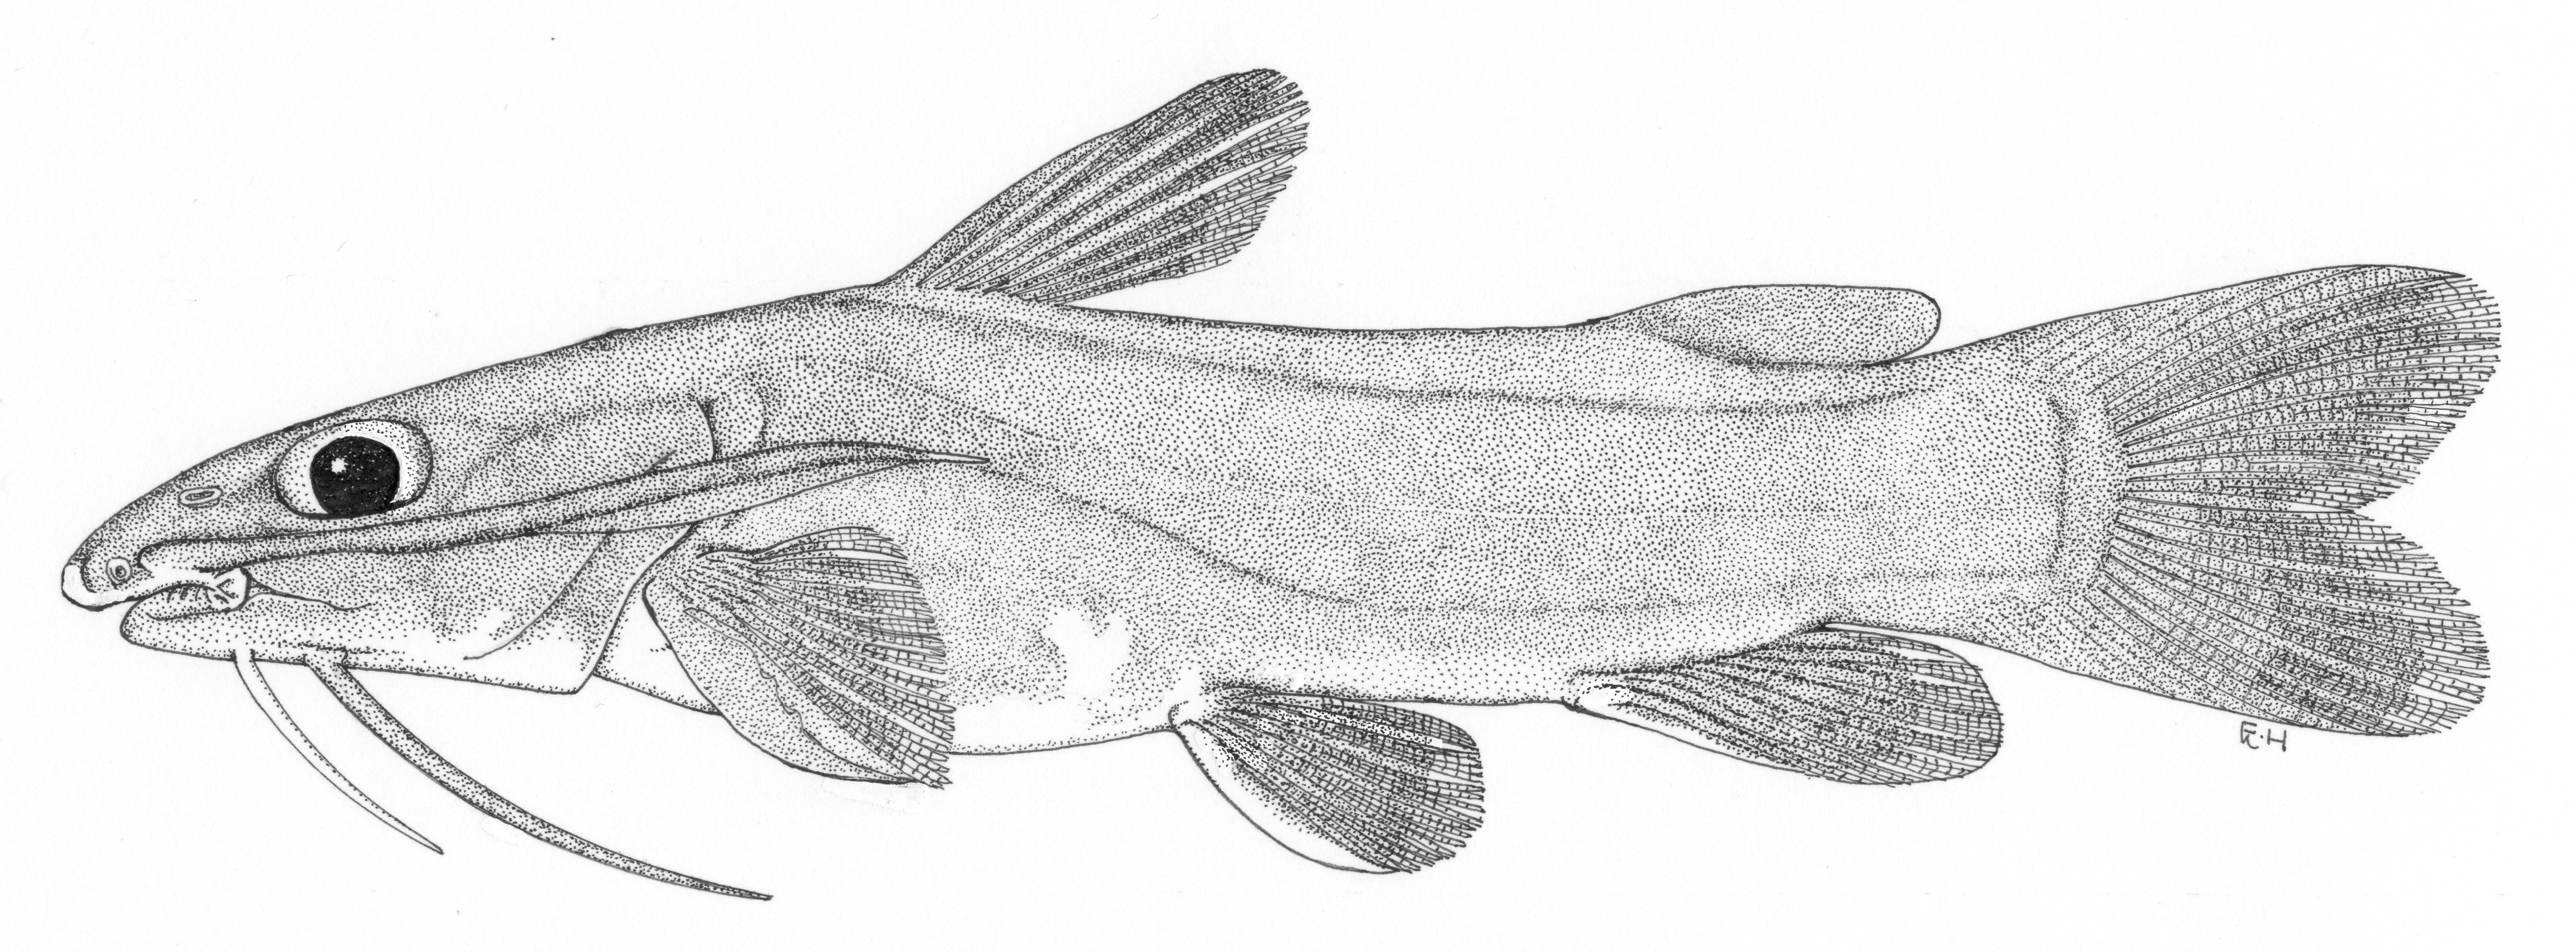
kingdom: Animalia
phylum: Chordata
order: Siluriformes
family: Claroteidae
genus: Phyllonemus
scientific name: Phyllonemus
